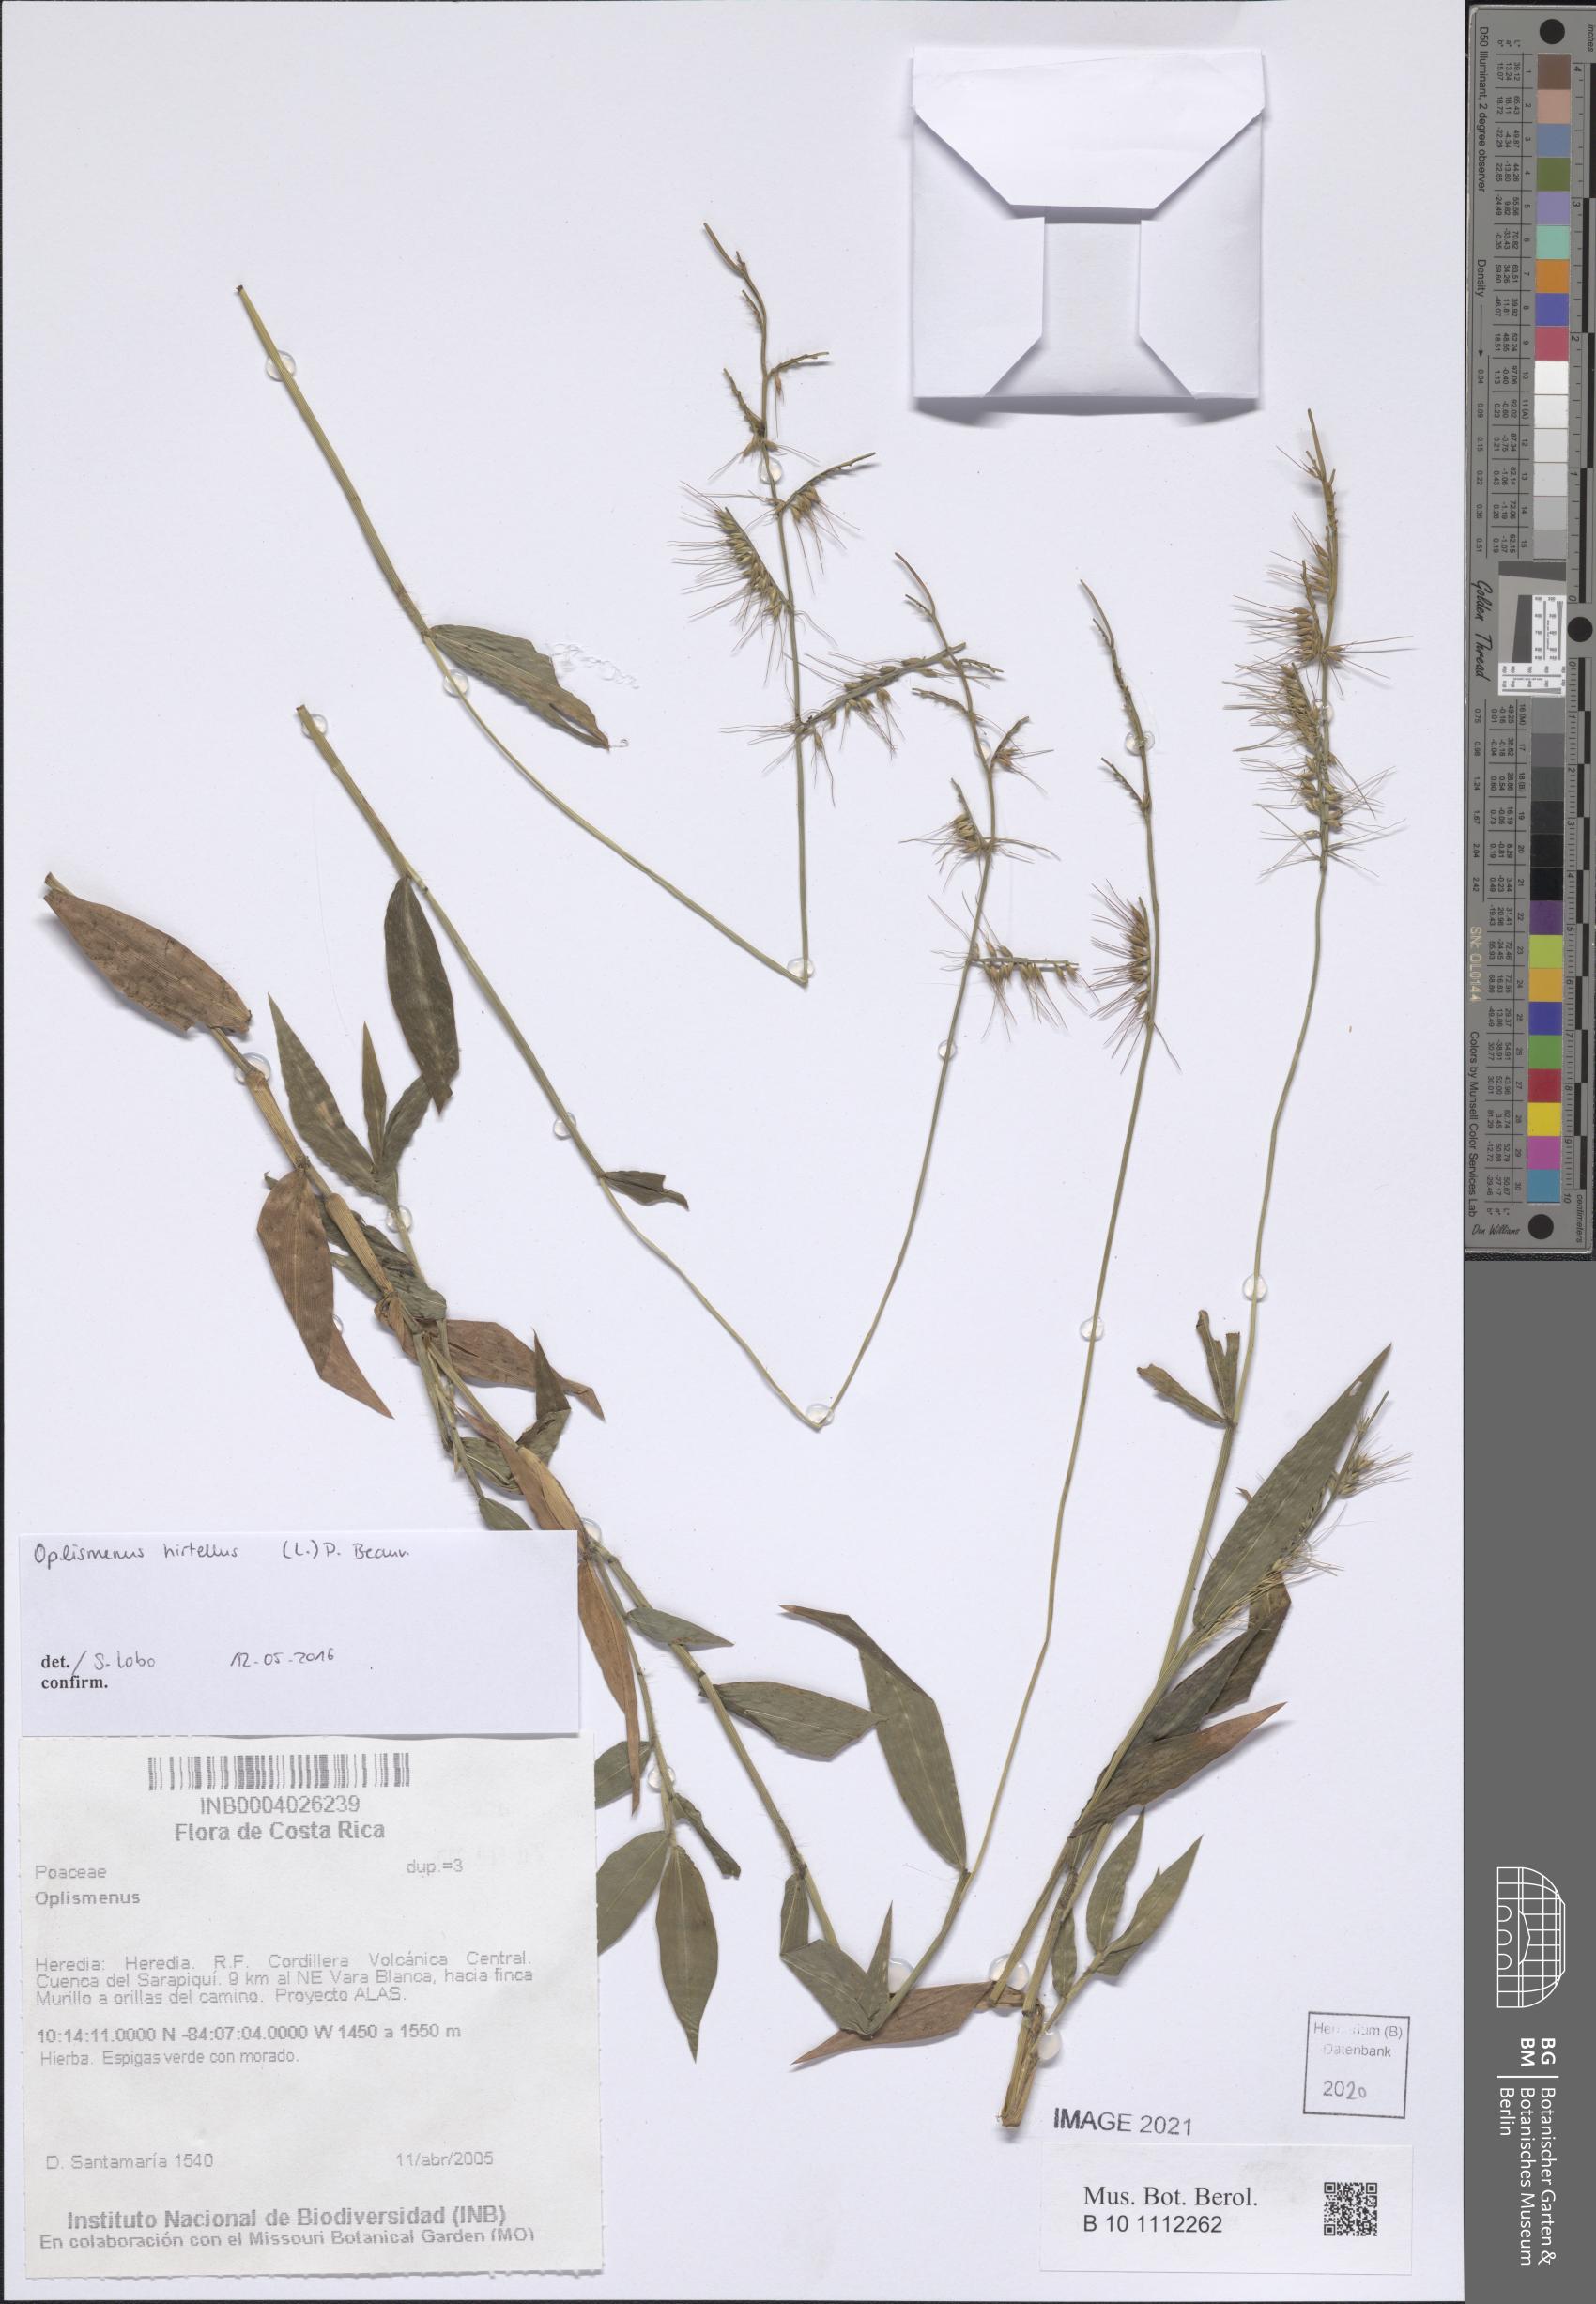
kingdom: Plantae
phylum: Tracheophyta
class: Liliopsida
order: Poales
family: Poaceae
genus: Oplismenus
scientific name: Oplismenus
